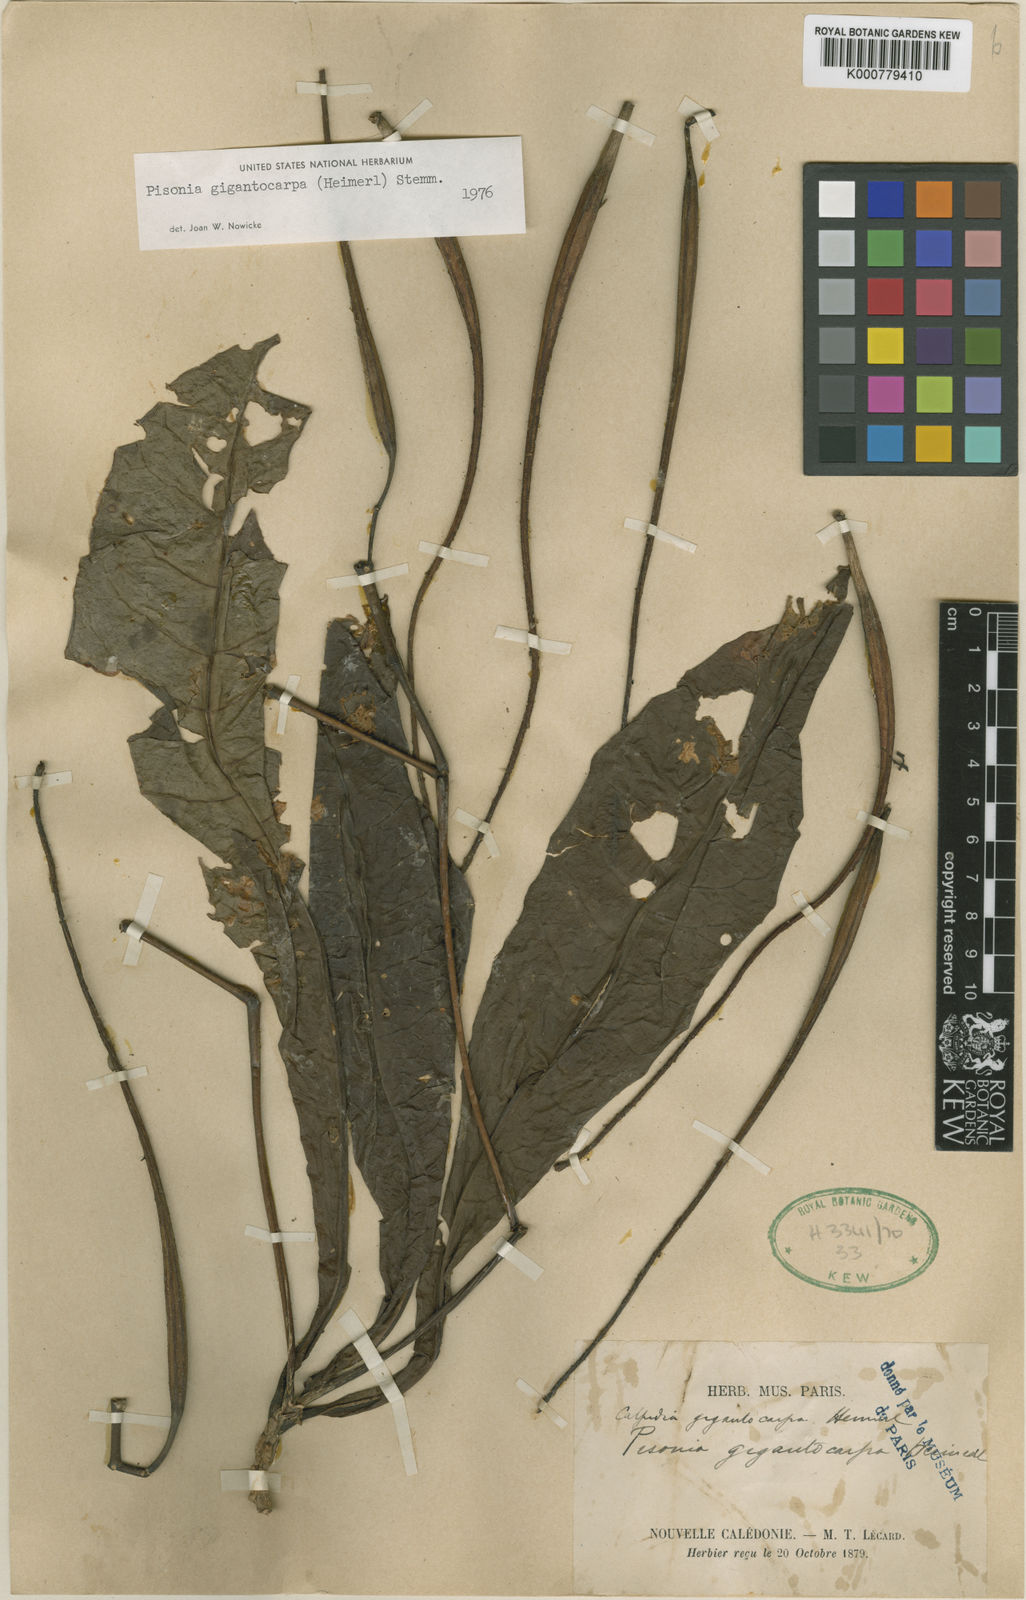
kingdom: Plantae
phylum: Tracheophyta
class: Magnoliopsida
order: Caryophyllales
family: Nyctaginaceae
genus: Ceodes
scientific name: Ceodes gigantocarpa
